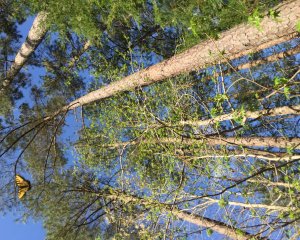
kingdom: Animalia
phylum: Arthropoda
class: Insecta
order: Lepidoptera
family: Papilionidae
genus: Pterourus
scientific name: Pterourus glaucus
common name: Eastern Tiger Swallowtail
